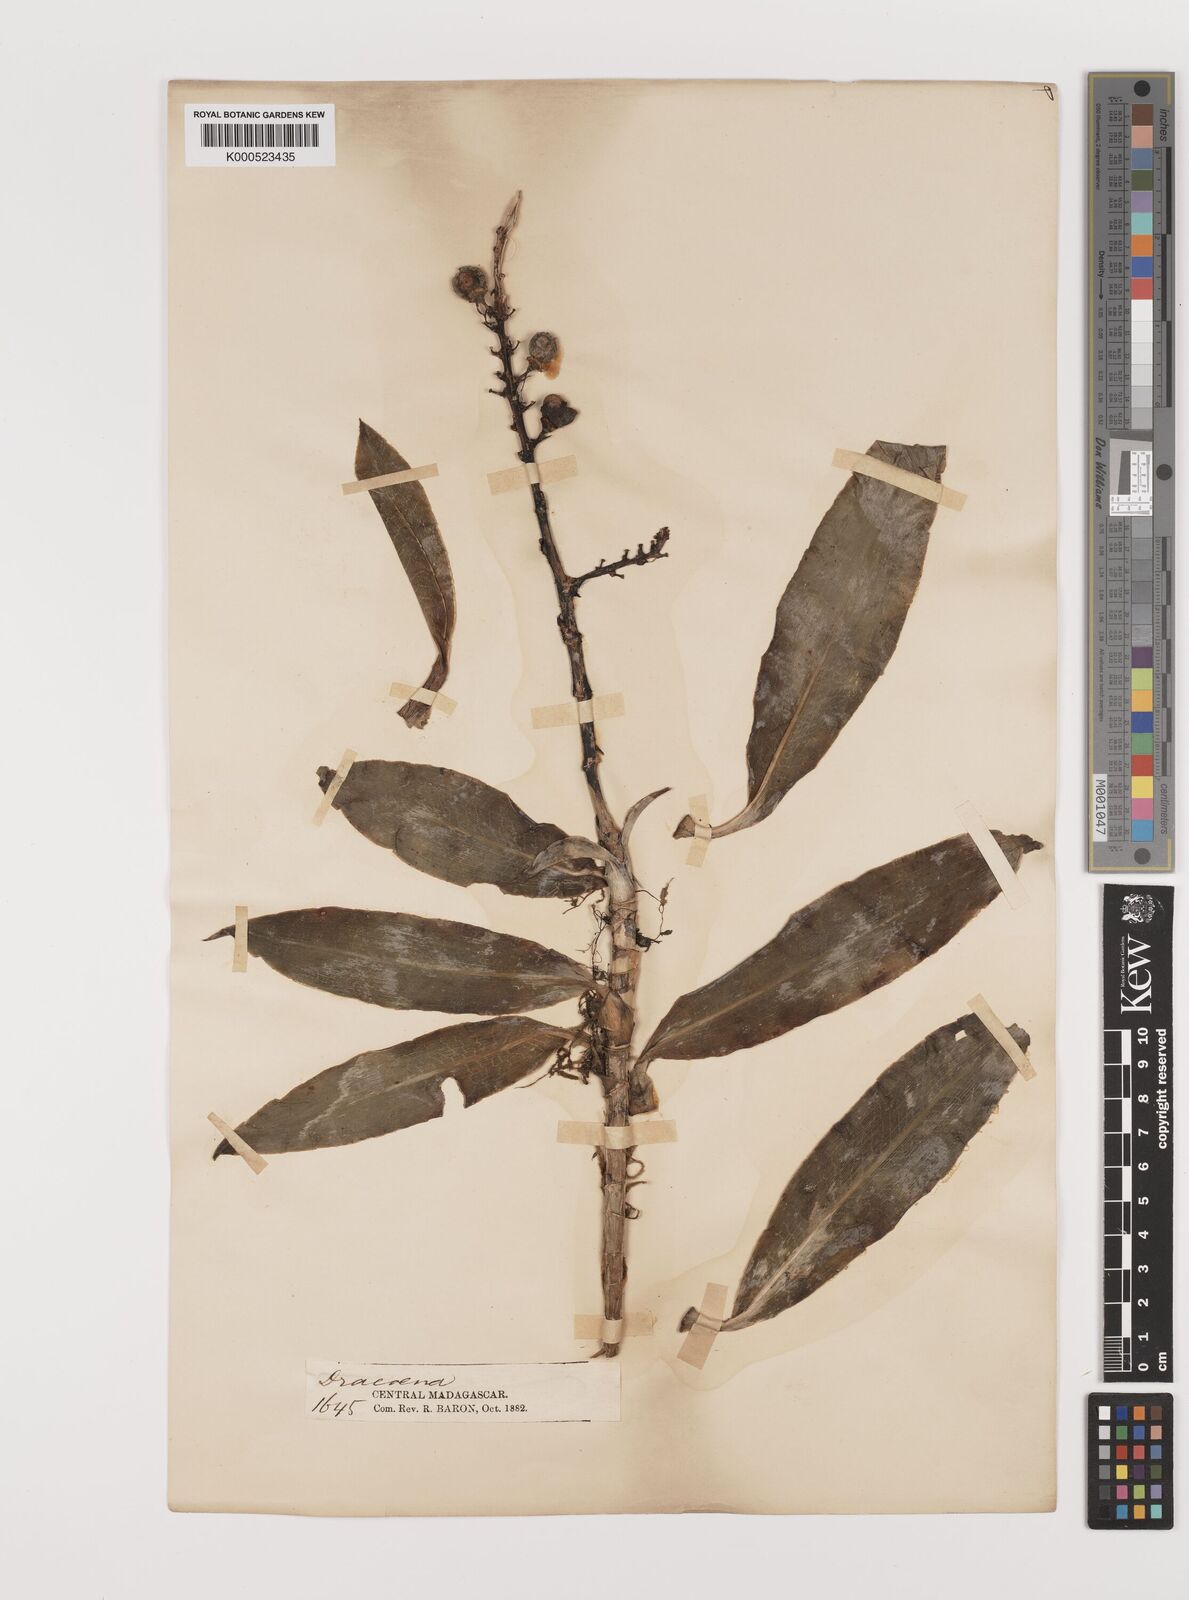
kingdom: Plantae
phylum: Tracheophyta
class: Liliopsida
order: Asparagales
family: Asparagaceae
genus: Dracaena
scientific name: Dracaena elliptica
